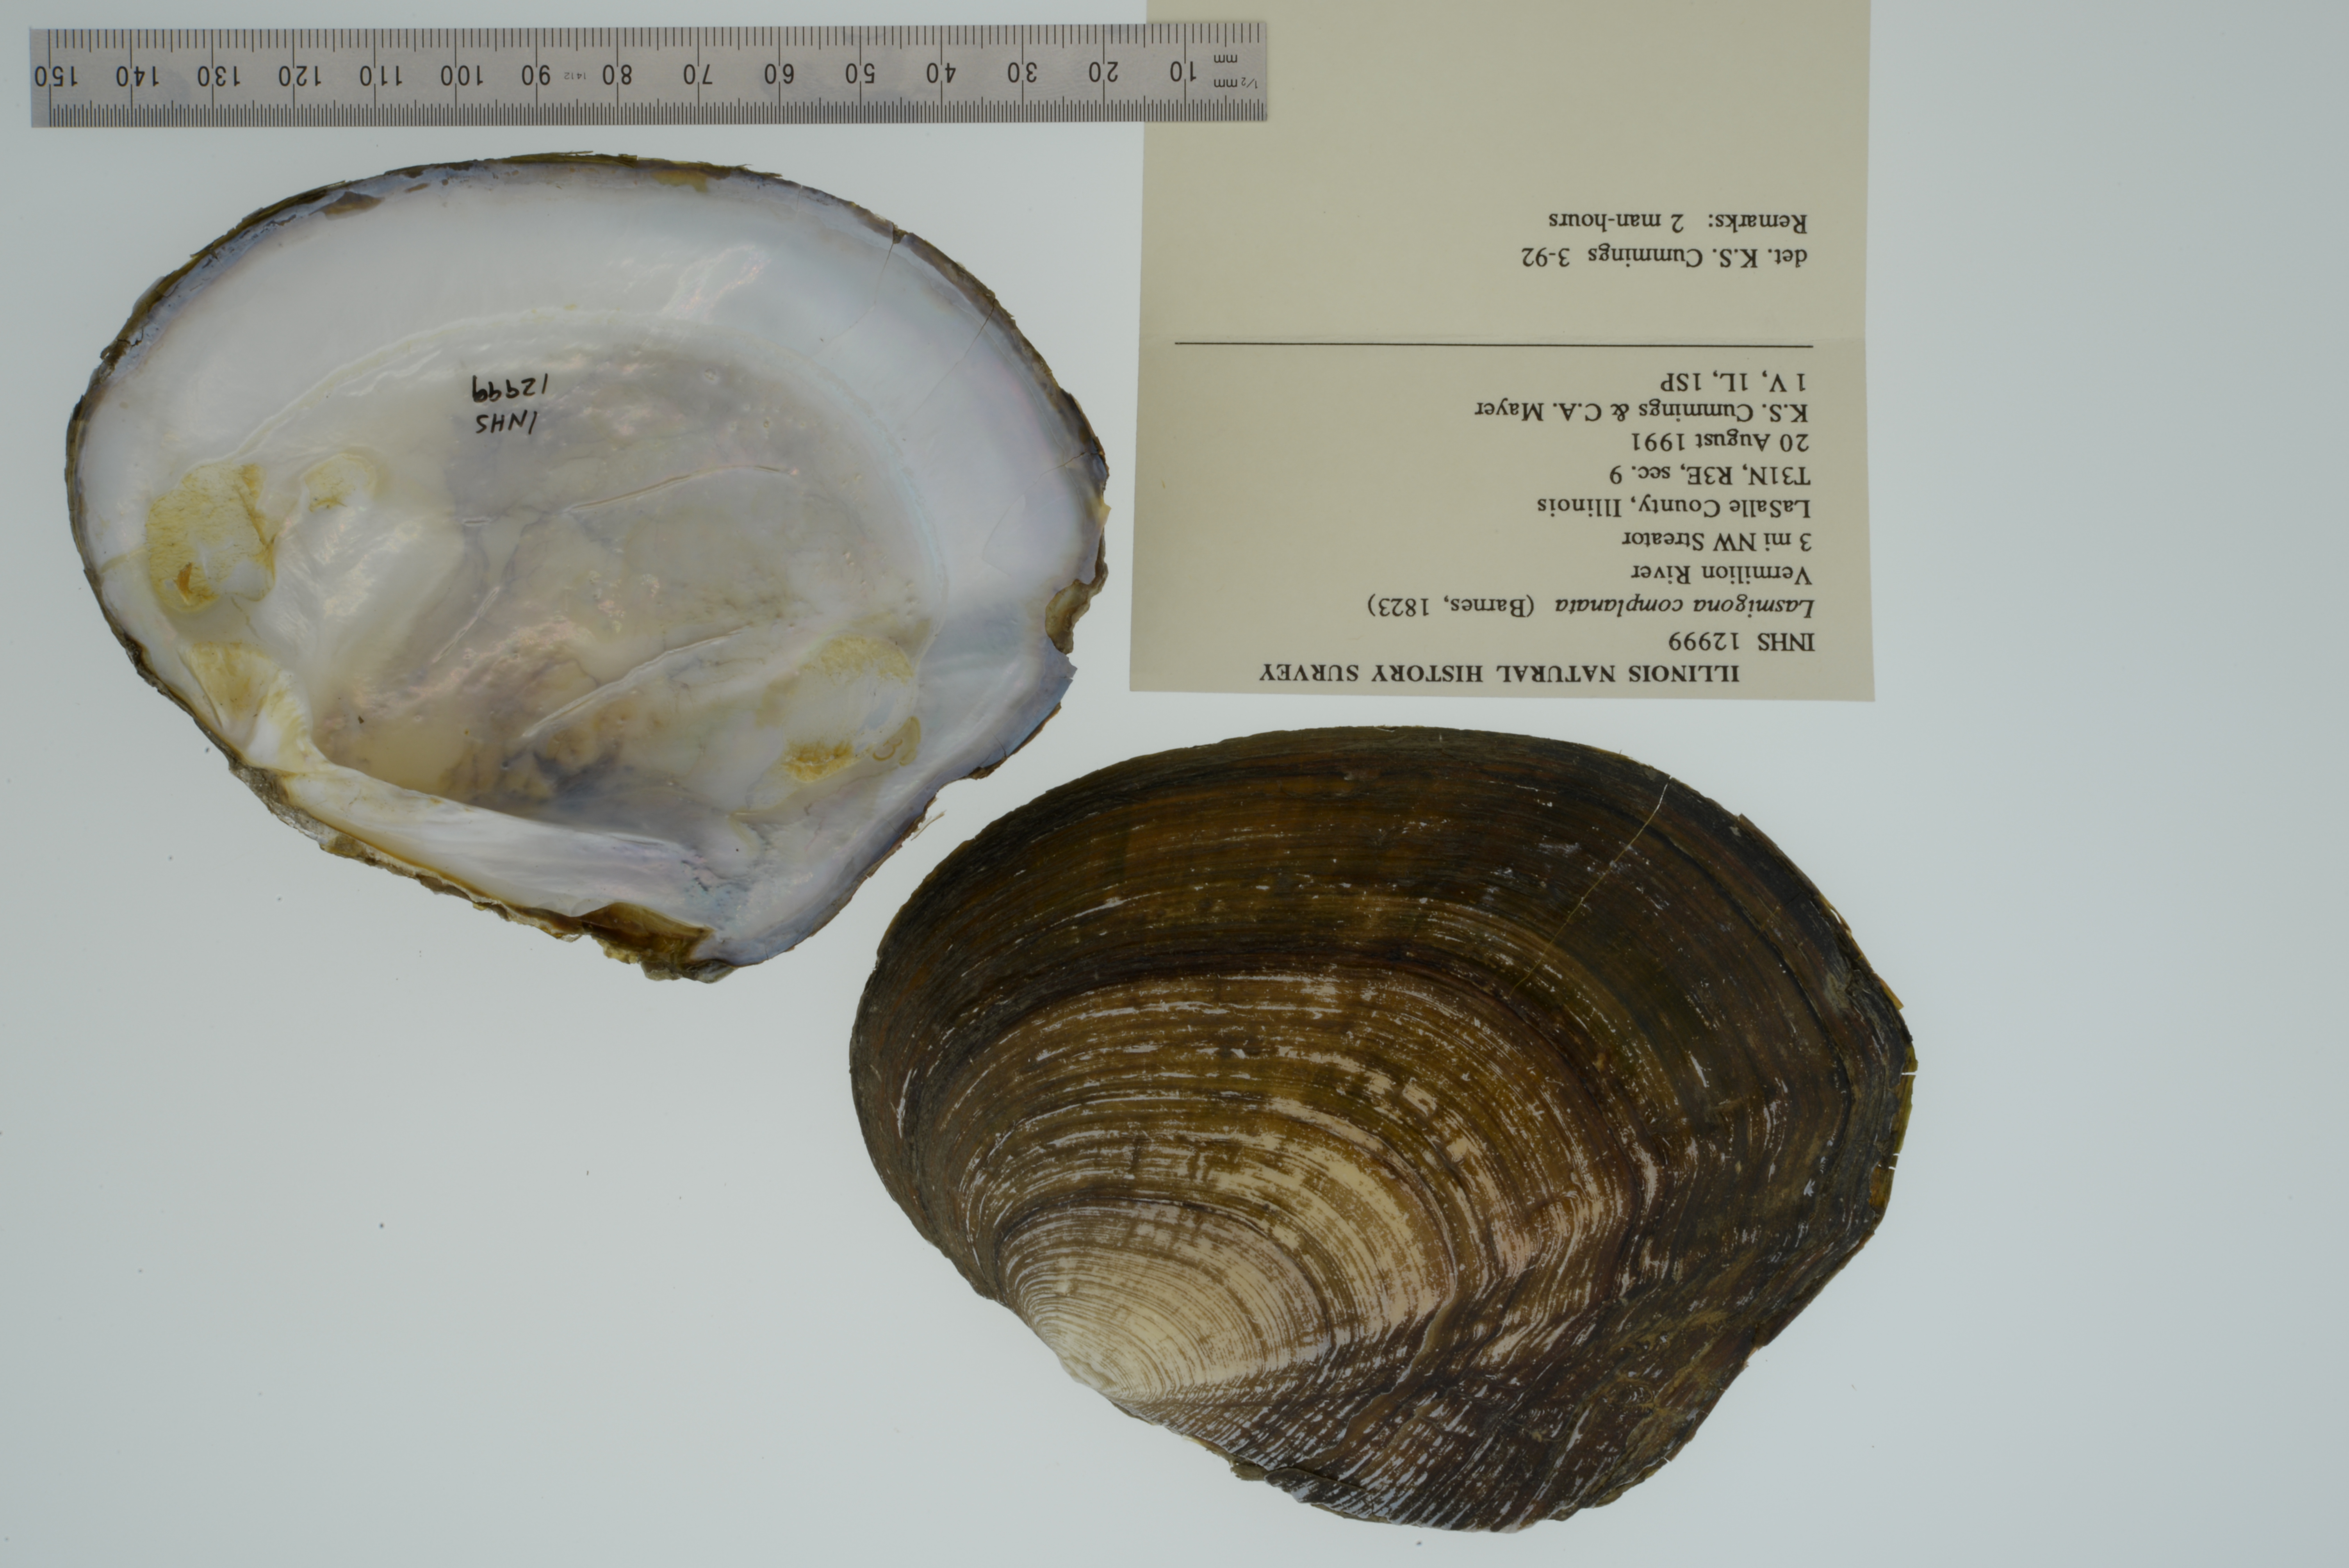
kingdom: Animalia
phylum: Mollusca
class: Bivalvia
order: Unionida
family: Unionidae
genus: Lasmigona
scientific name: Lasmigona complanata
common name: White heelsplitter
